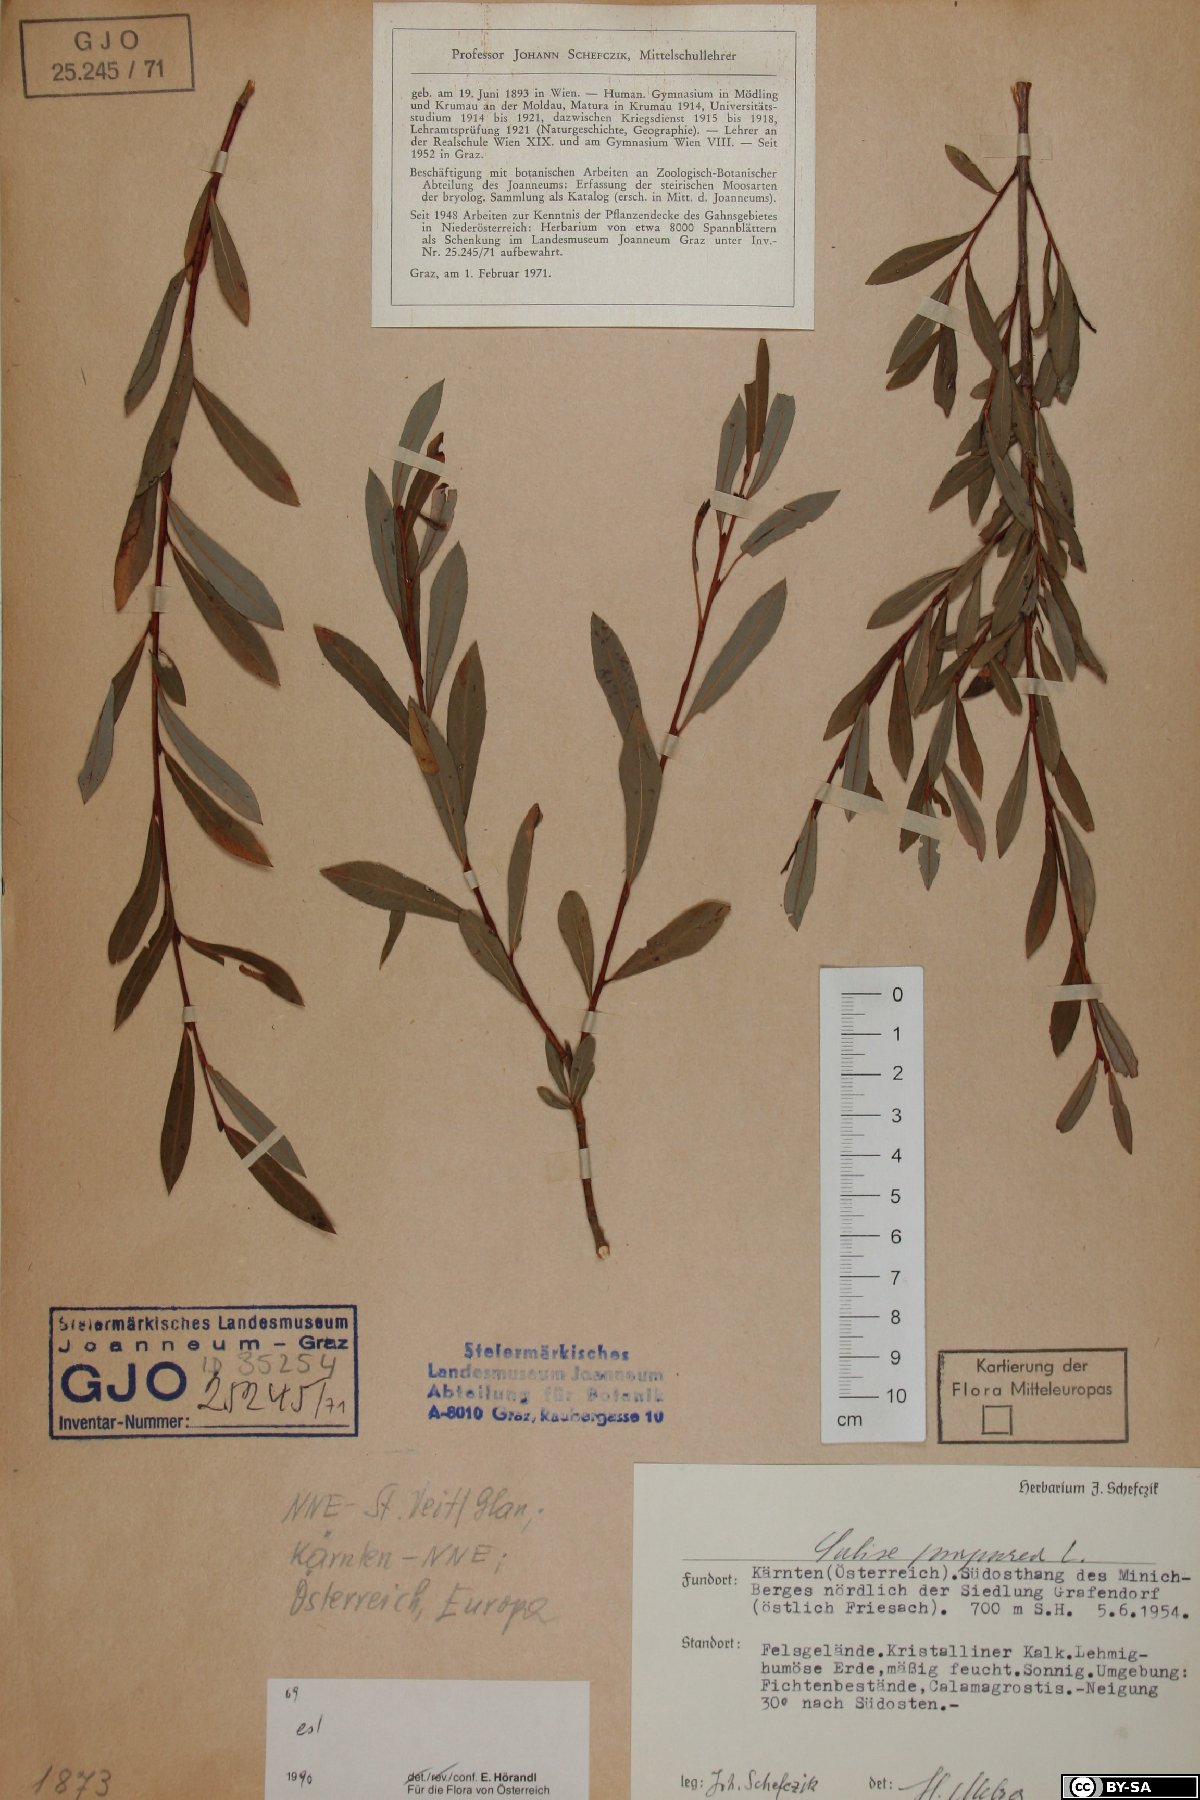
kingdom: Plantae
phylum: Tracheophyta
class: Magnoliopsida
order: Malpighiales
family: Salicaceae
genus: Salix
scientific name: Salix purpurea
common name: Purple willow
